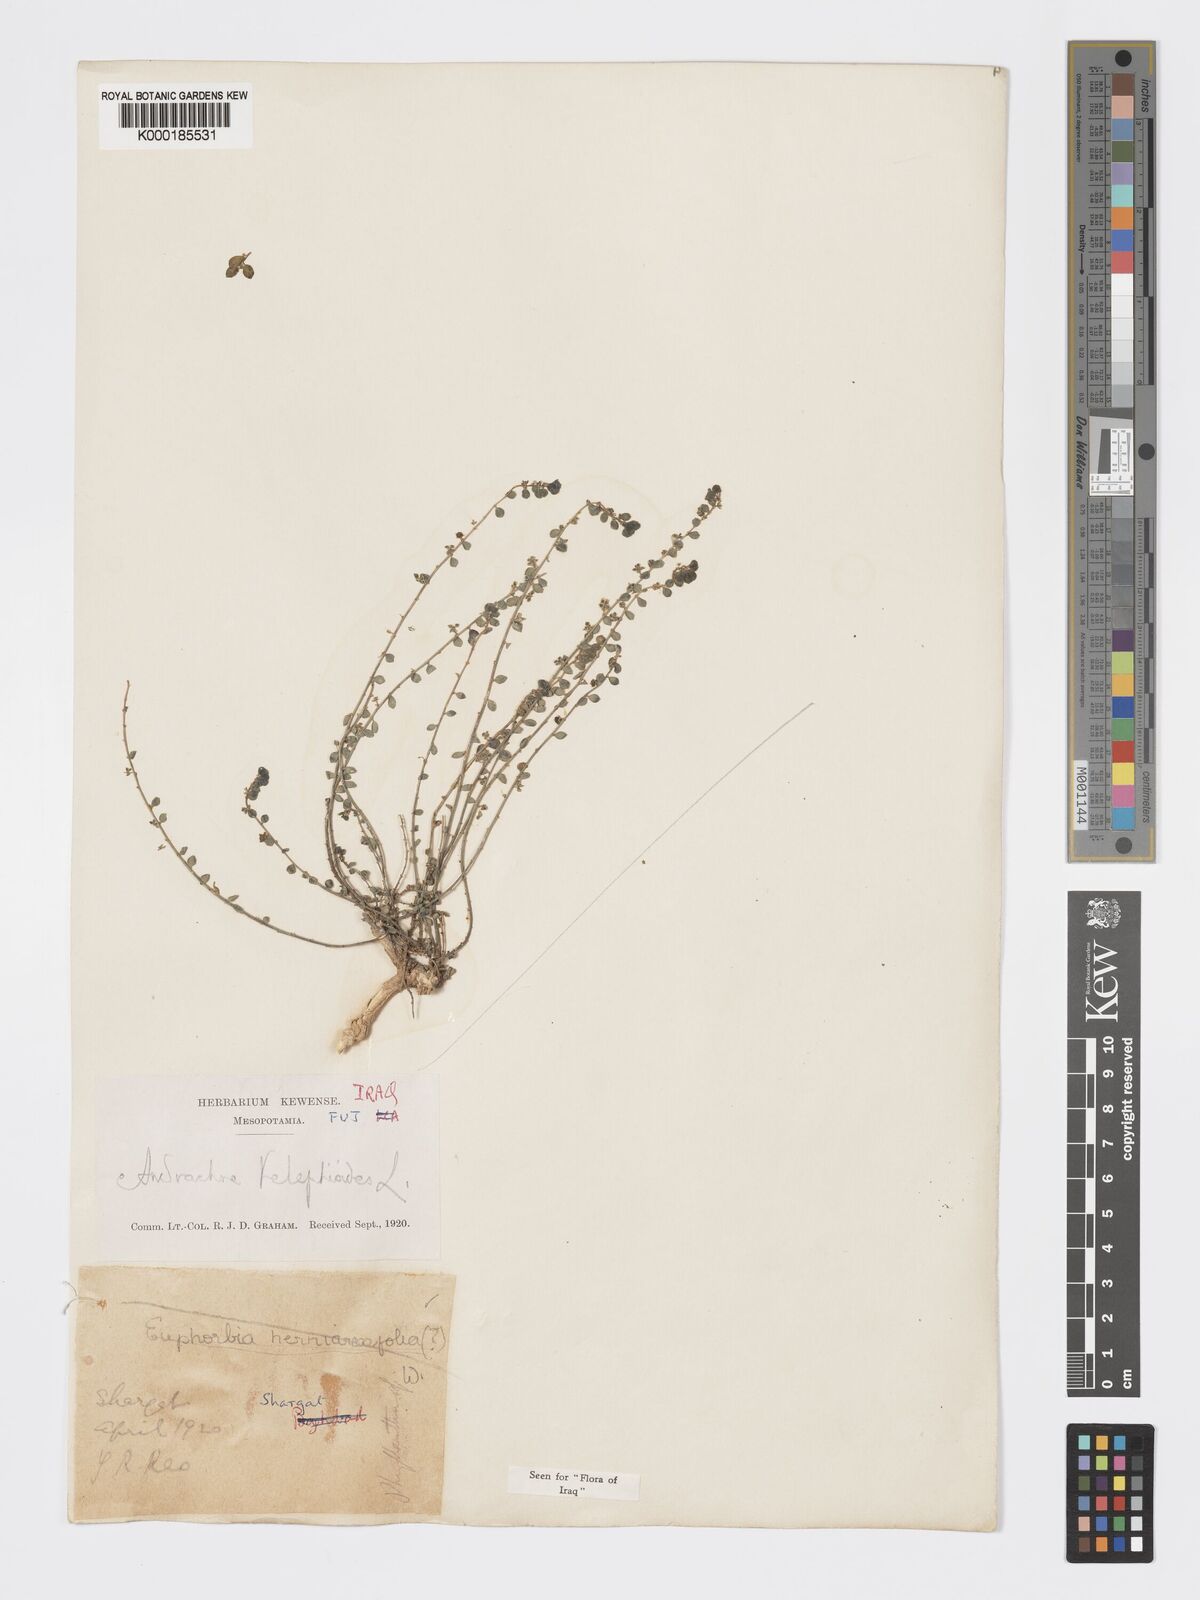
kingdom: Plantae
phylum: Tracheophyta
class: Magnoliopsida
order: Malpighiales
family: Phyllanthaceae
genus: Andrachne
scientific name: Andrachne telephioides
